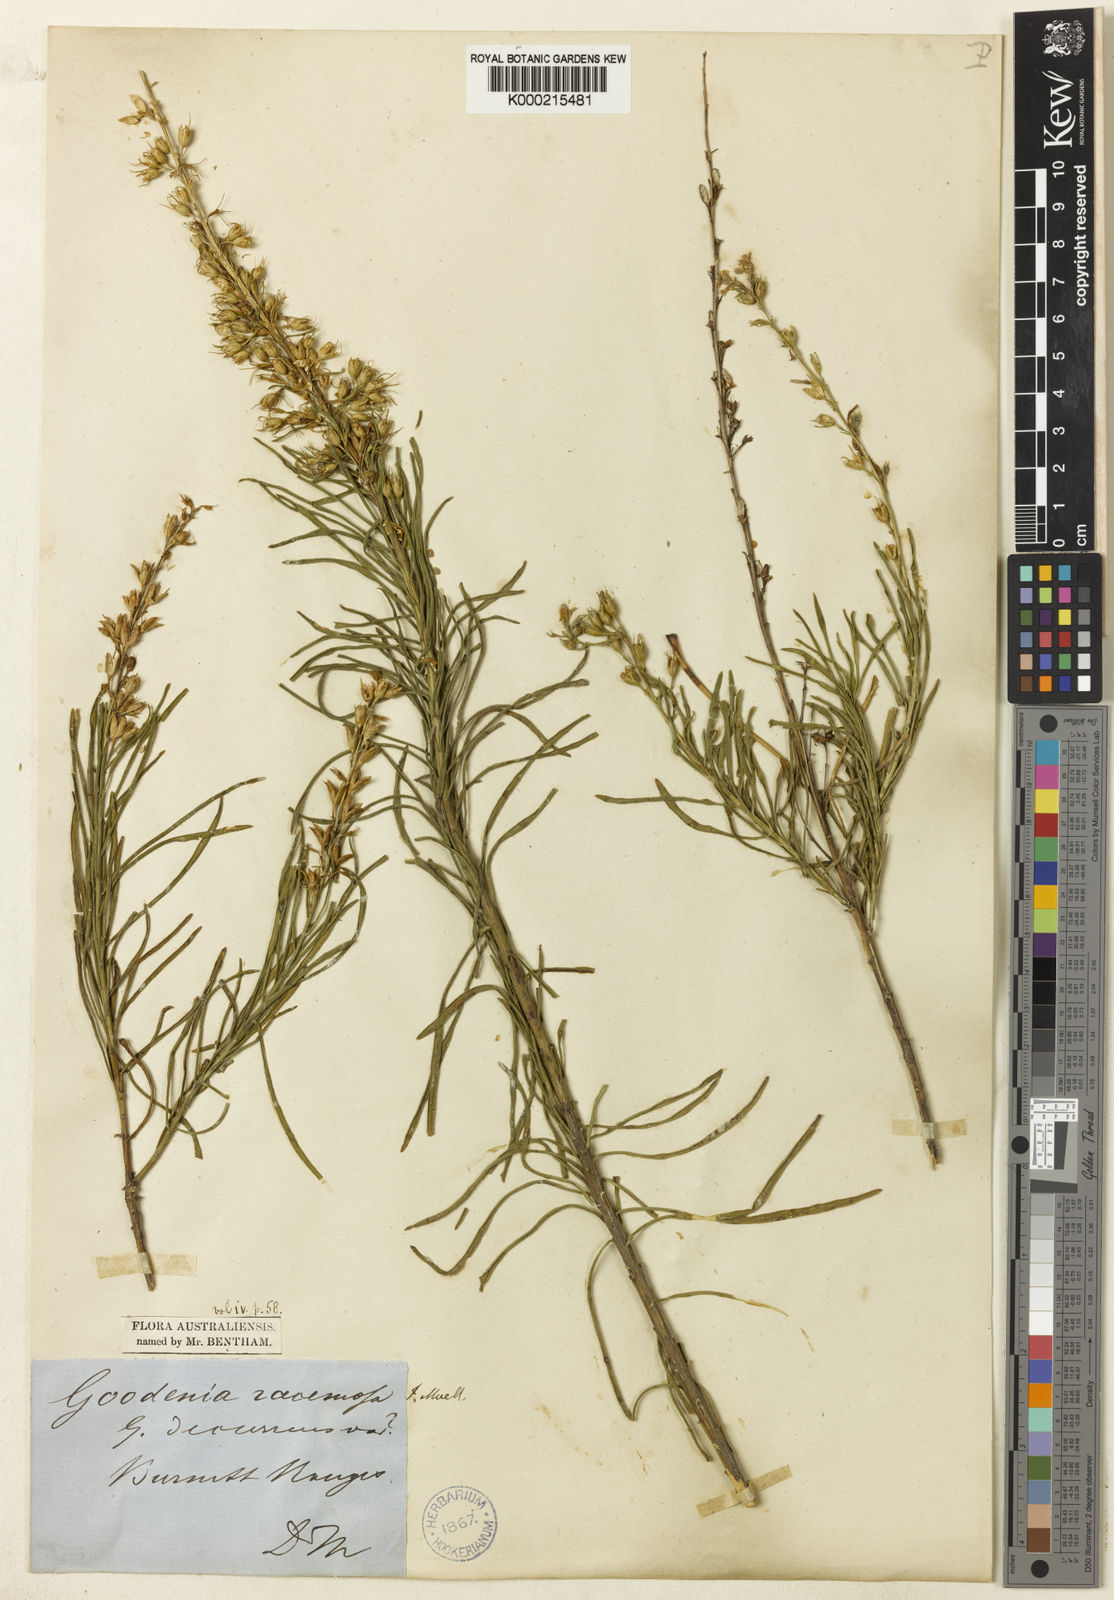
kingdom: Plantae
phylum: Tracheophyta
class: Magnoliopsida
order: Asterales
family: Goodeniaceae
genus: Goodenia
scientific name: Goodenia racemosa
